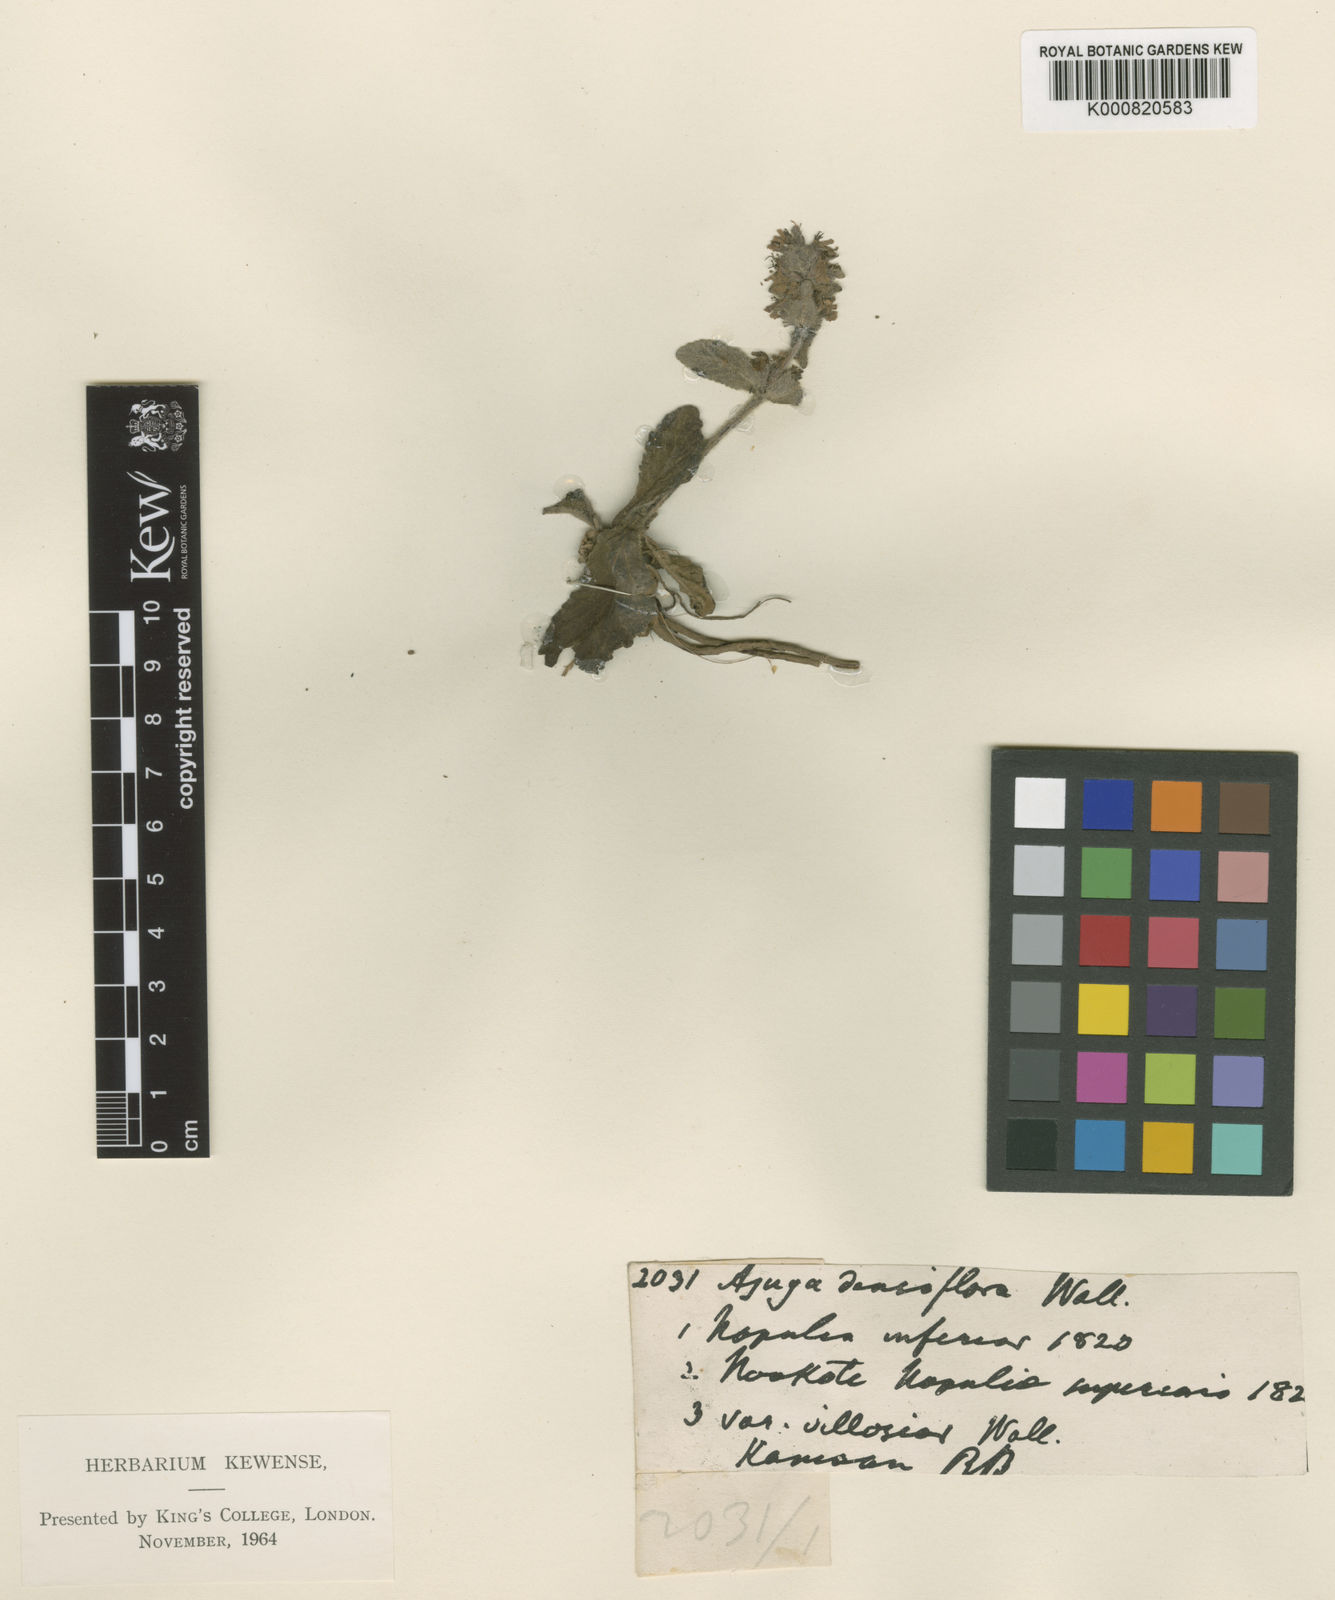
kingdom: Plantae
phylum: Tracheophyta
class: Magnoliopsida
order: Lamiales
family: Lamiaceae
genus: Ajuga
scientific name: Ajuga integrifolia
